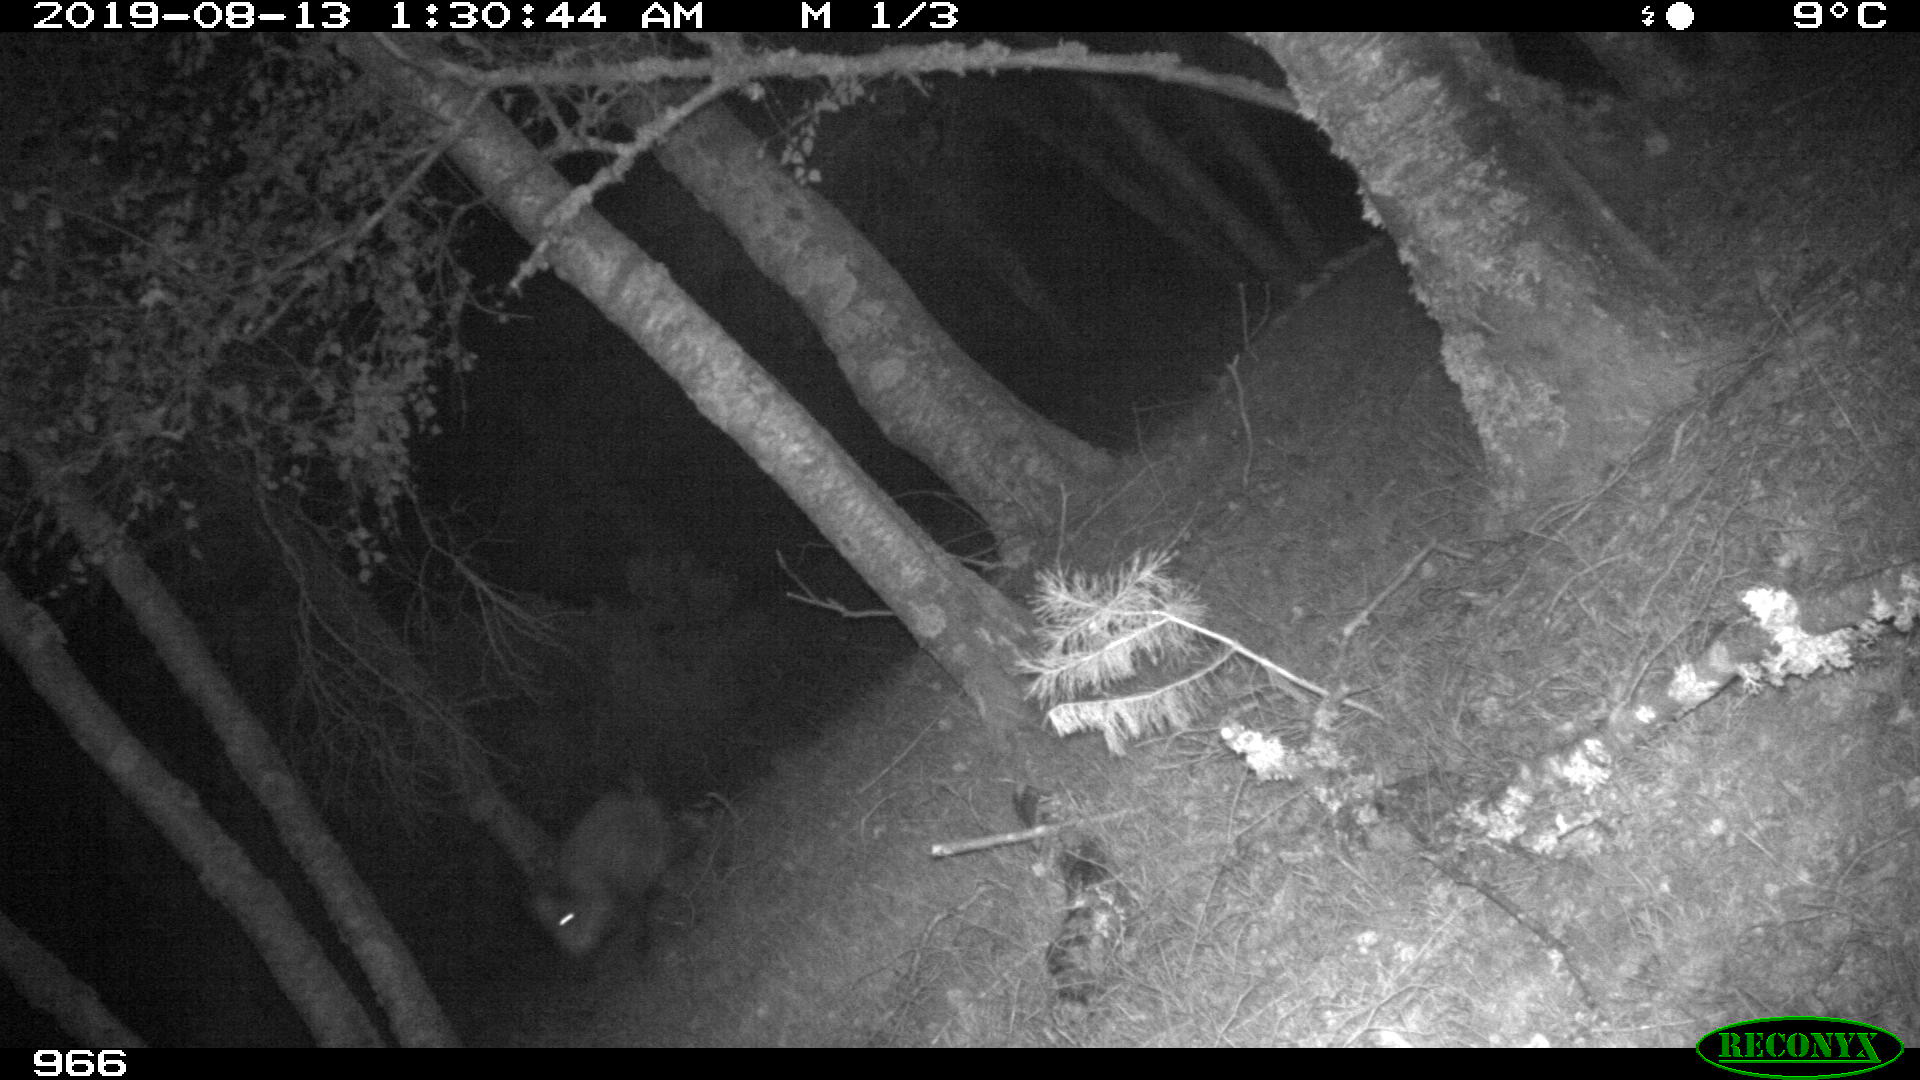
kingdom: Animalia
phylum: Chordata
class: Mammalia
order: Artiodactyla
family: Suidae
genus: Sus
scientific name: Sus scrofa
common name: Wild boar
